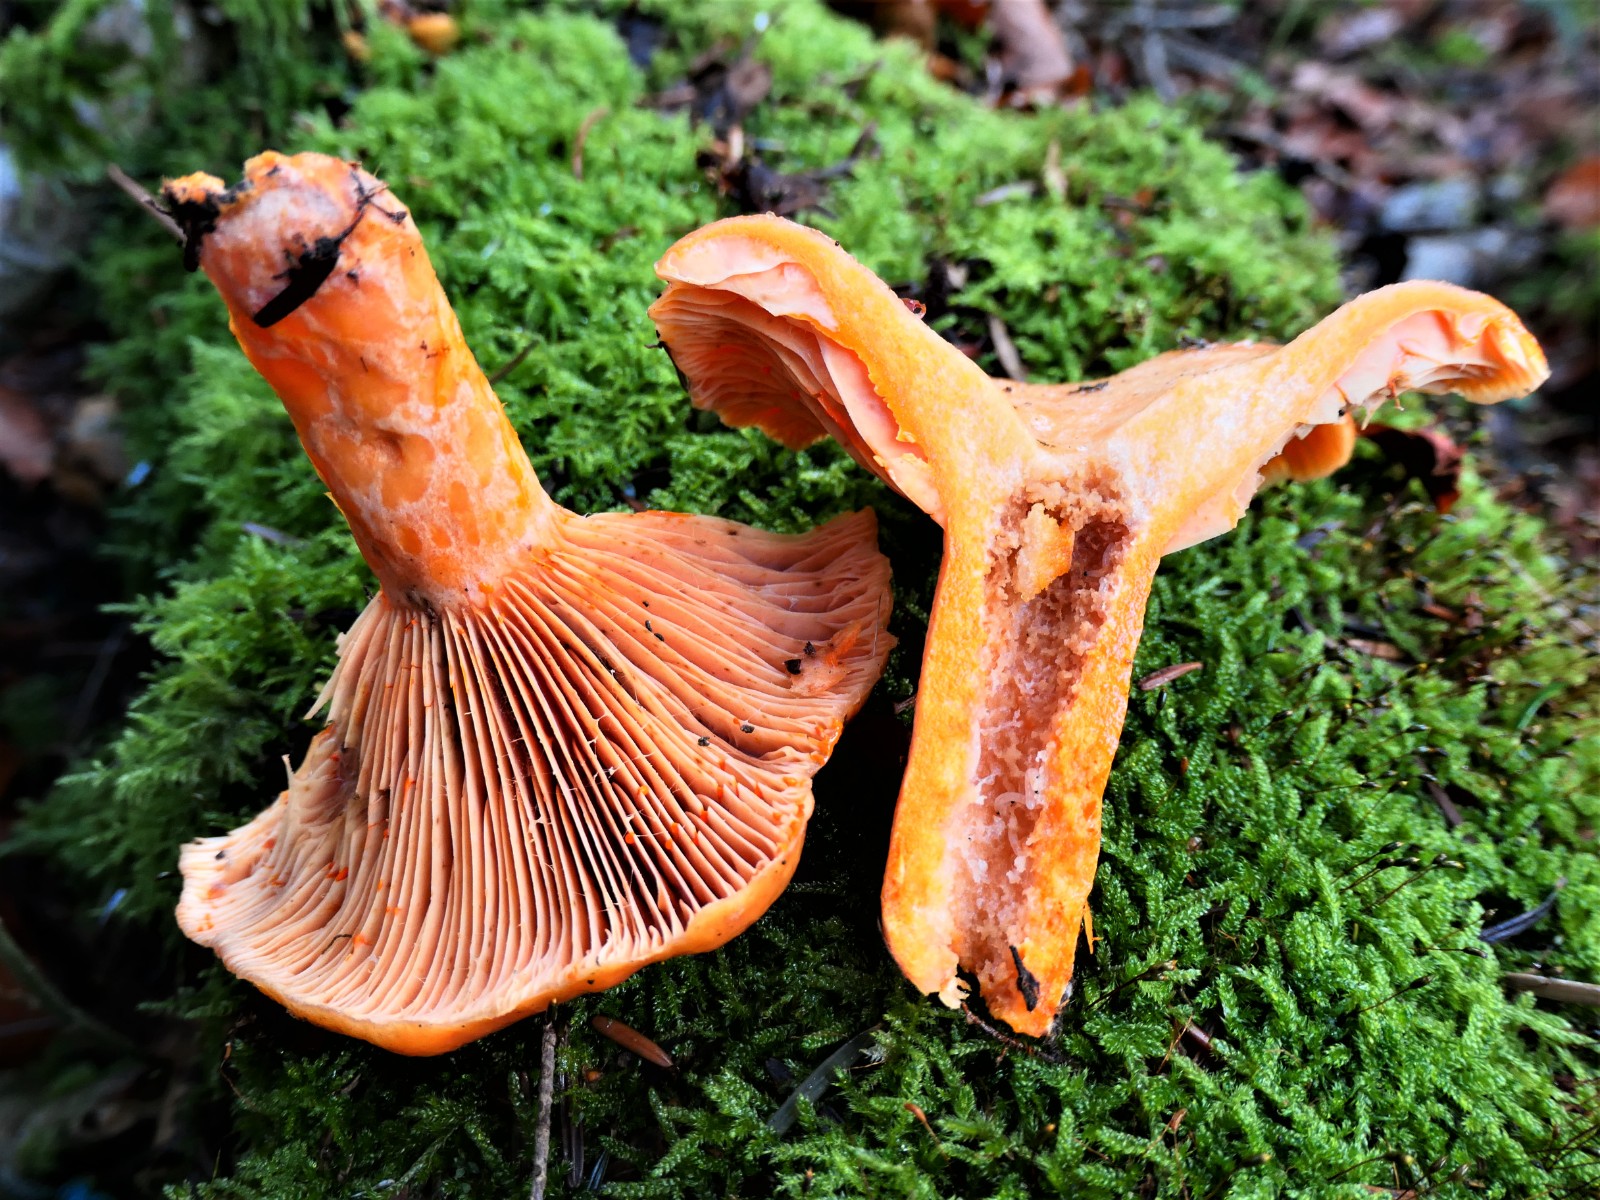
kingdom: Fungi
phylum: Basidiomycota
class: Agaricomycetes
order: Russulales
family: Russulaceae
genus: Lactarius
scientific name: Lactarius salmonicolor
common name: laksefarvet mælkehat
